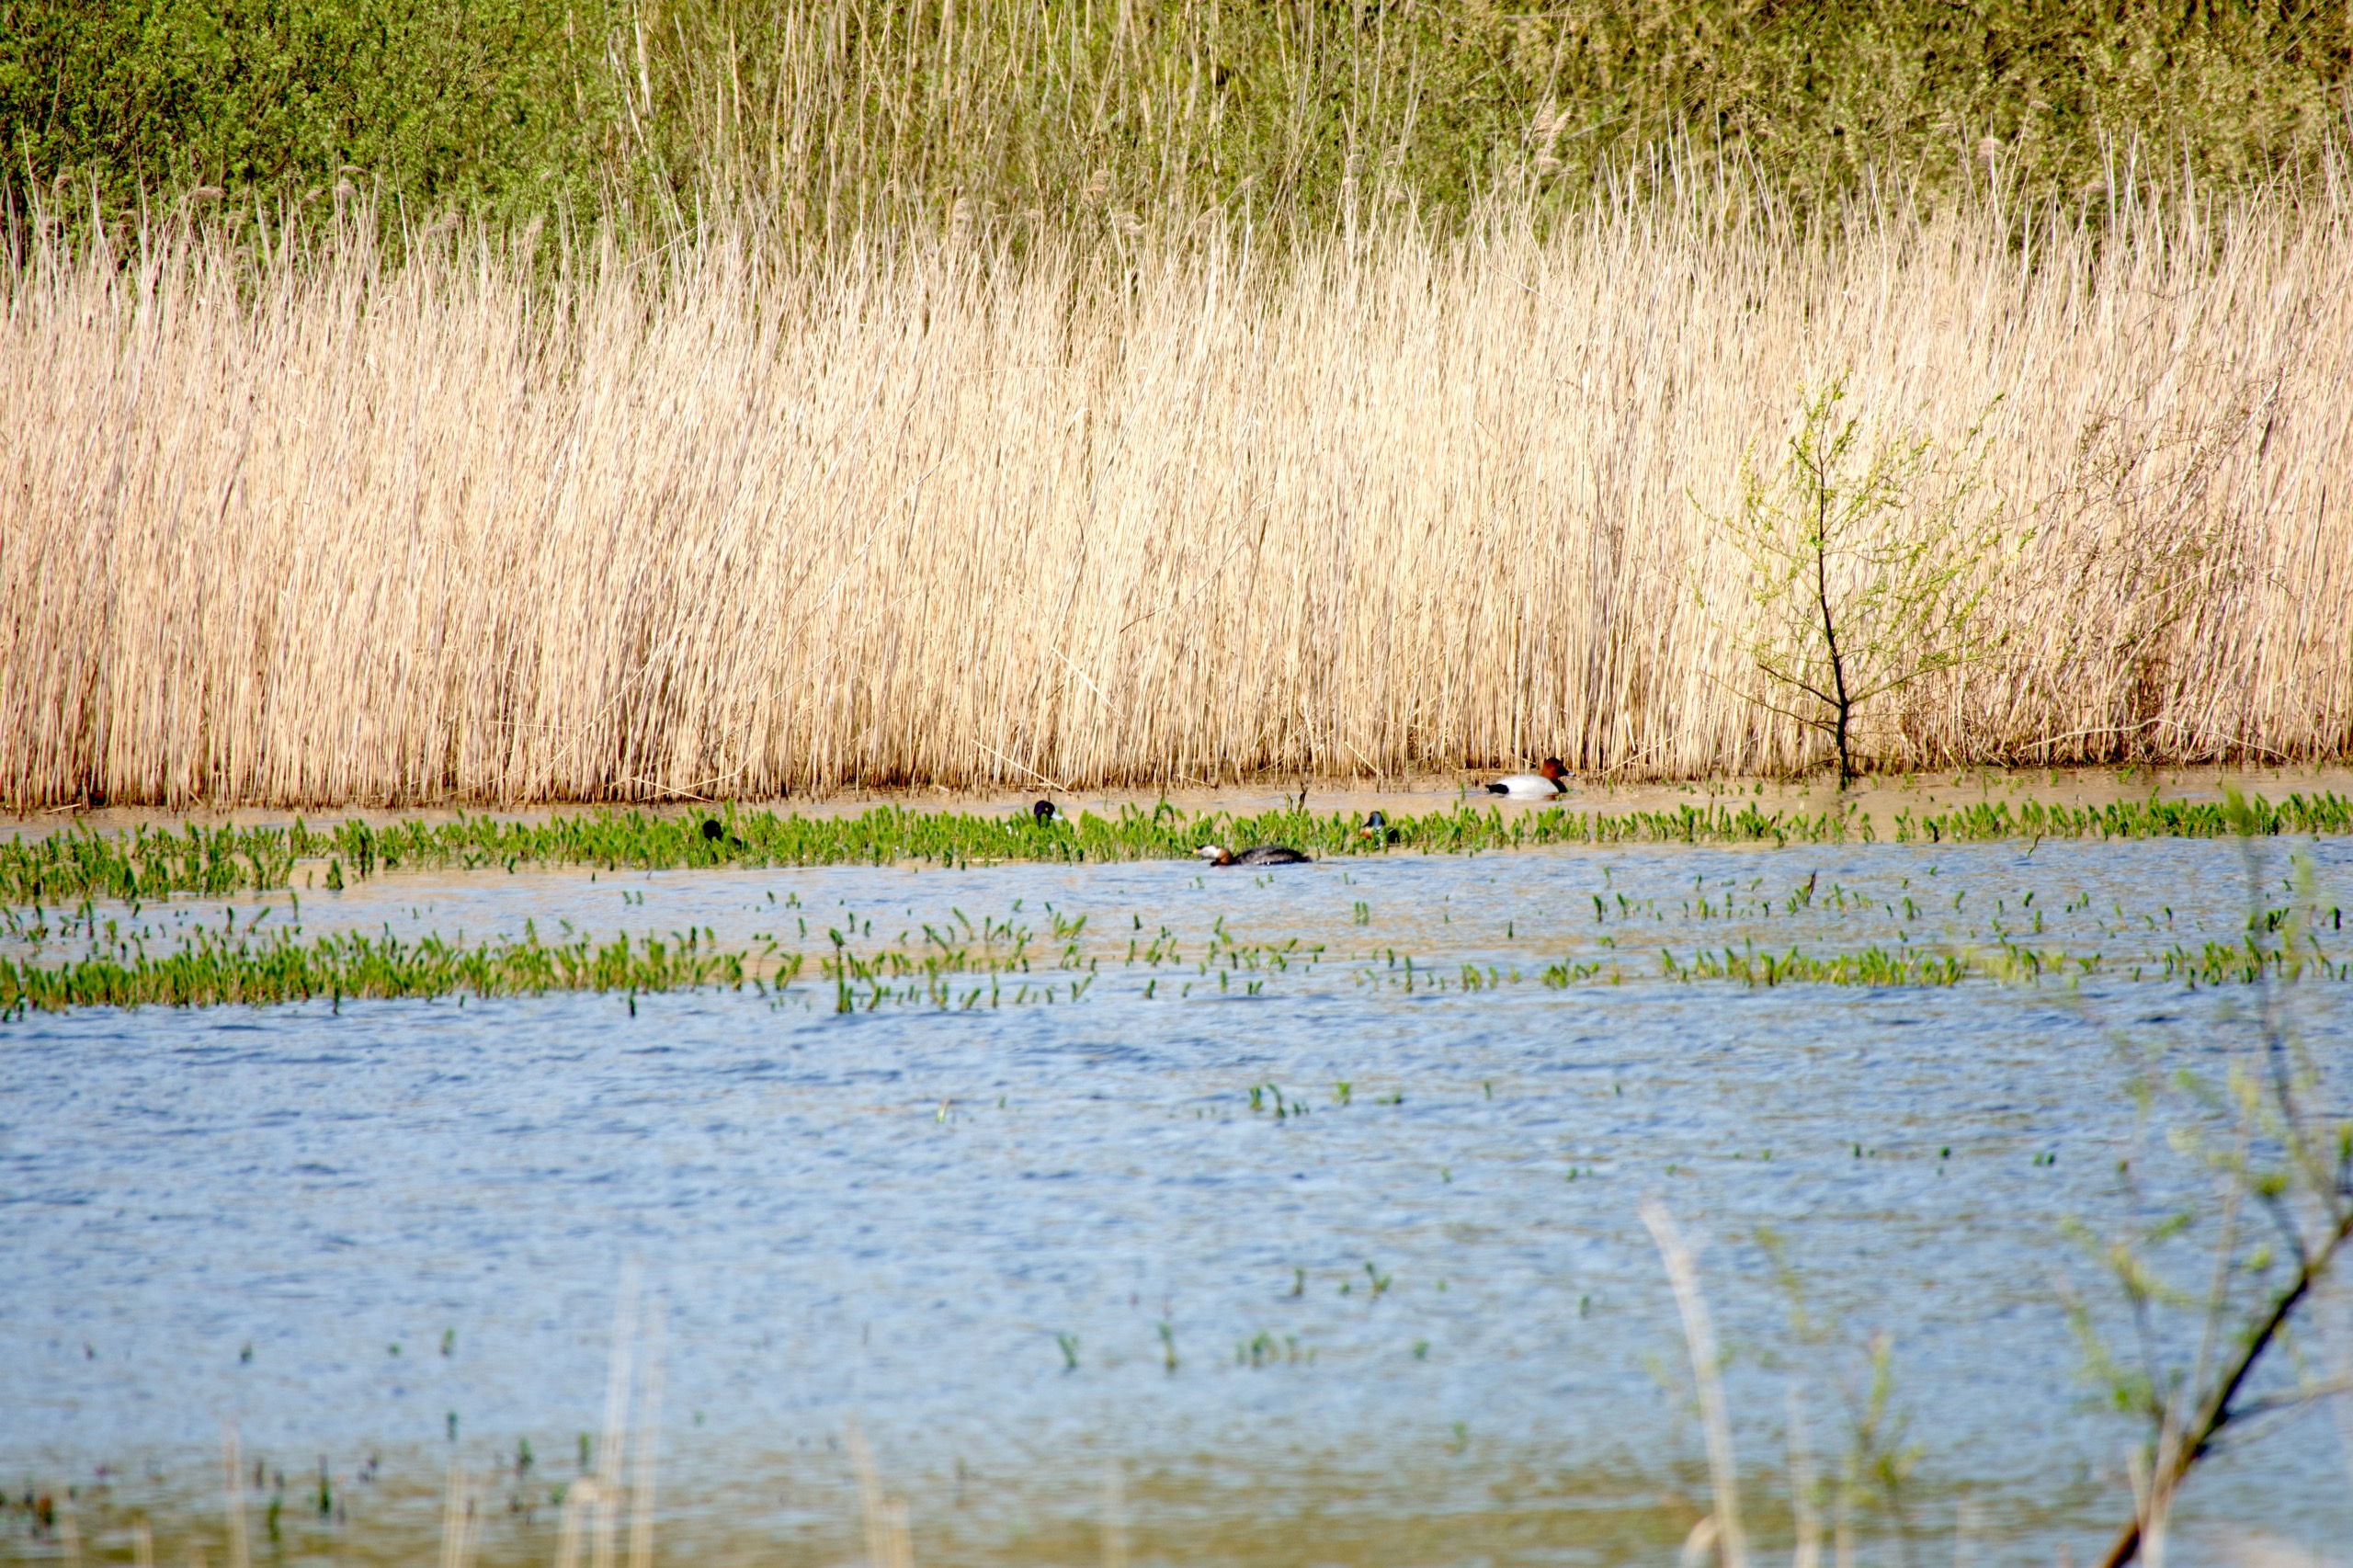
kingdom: Animalia
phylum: Chordata
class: Aves
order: Anseriformes
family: Anatidae
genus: Spatula
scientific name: Spatula clypeata
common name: Skeand
